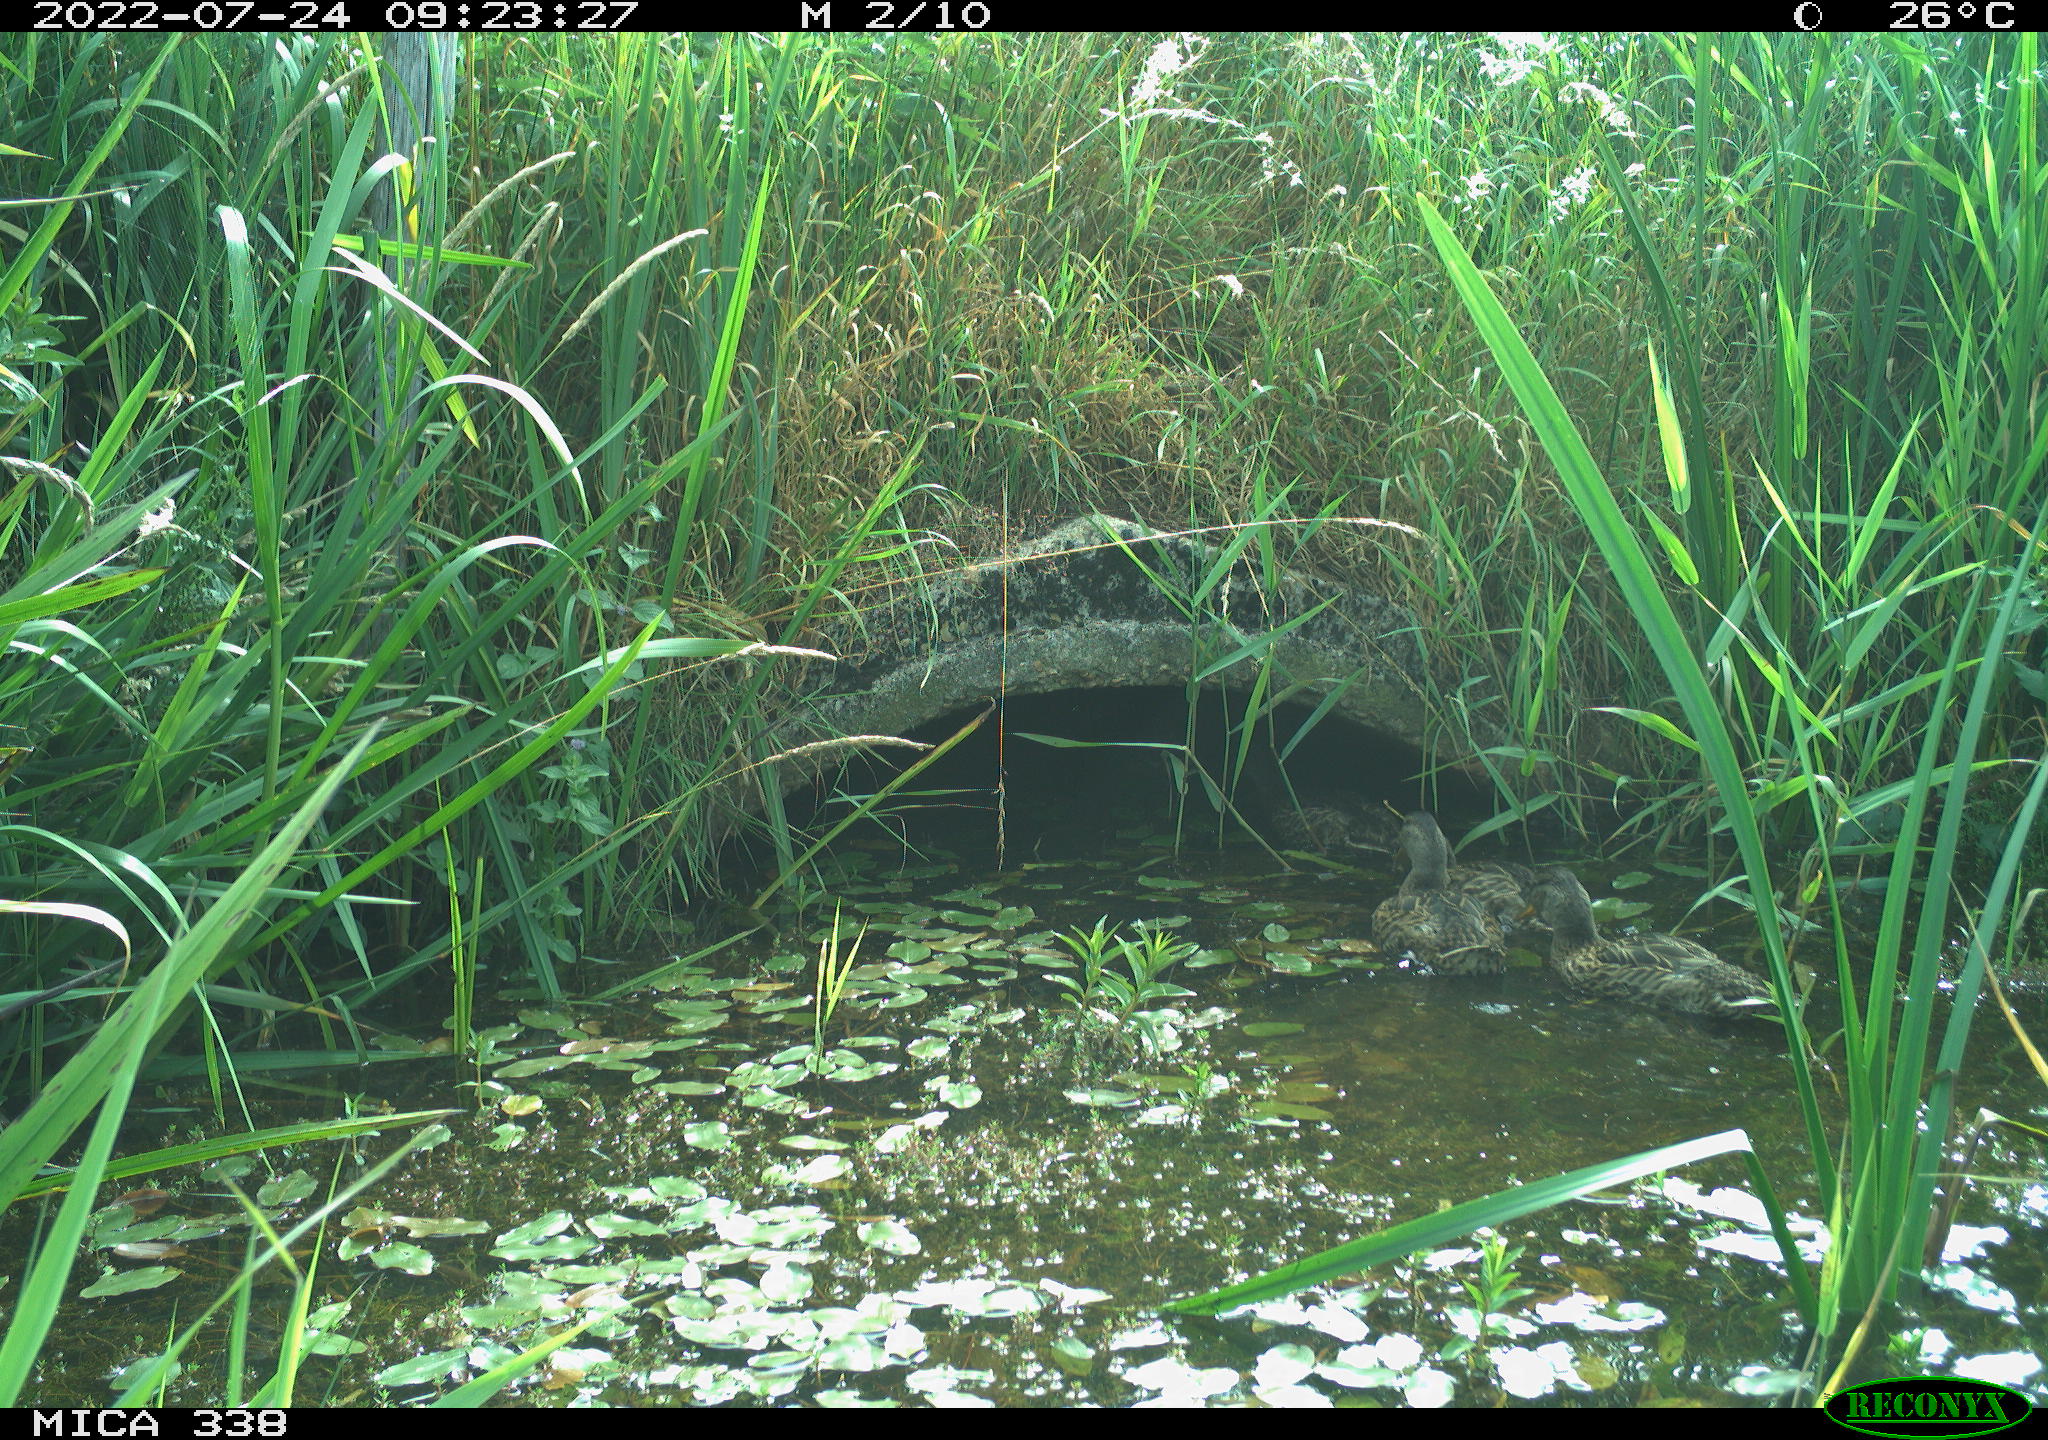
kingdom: Animalia
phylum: Chordata
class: Aves
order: Anseriformes
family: Anatidae
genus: Anas
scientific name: Anas platyrhynchos
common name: Mallard
